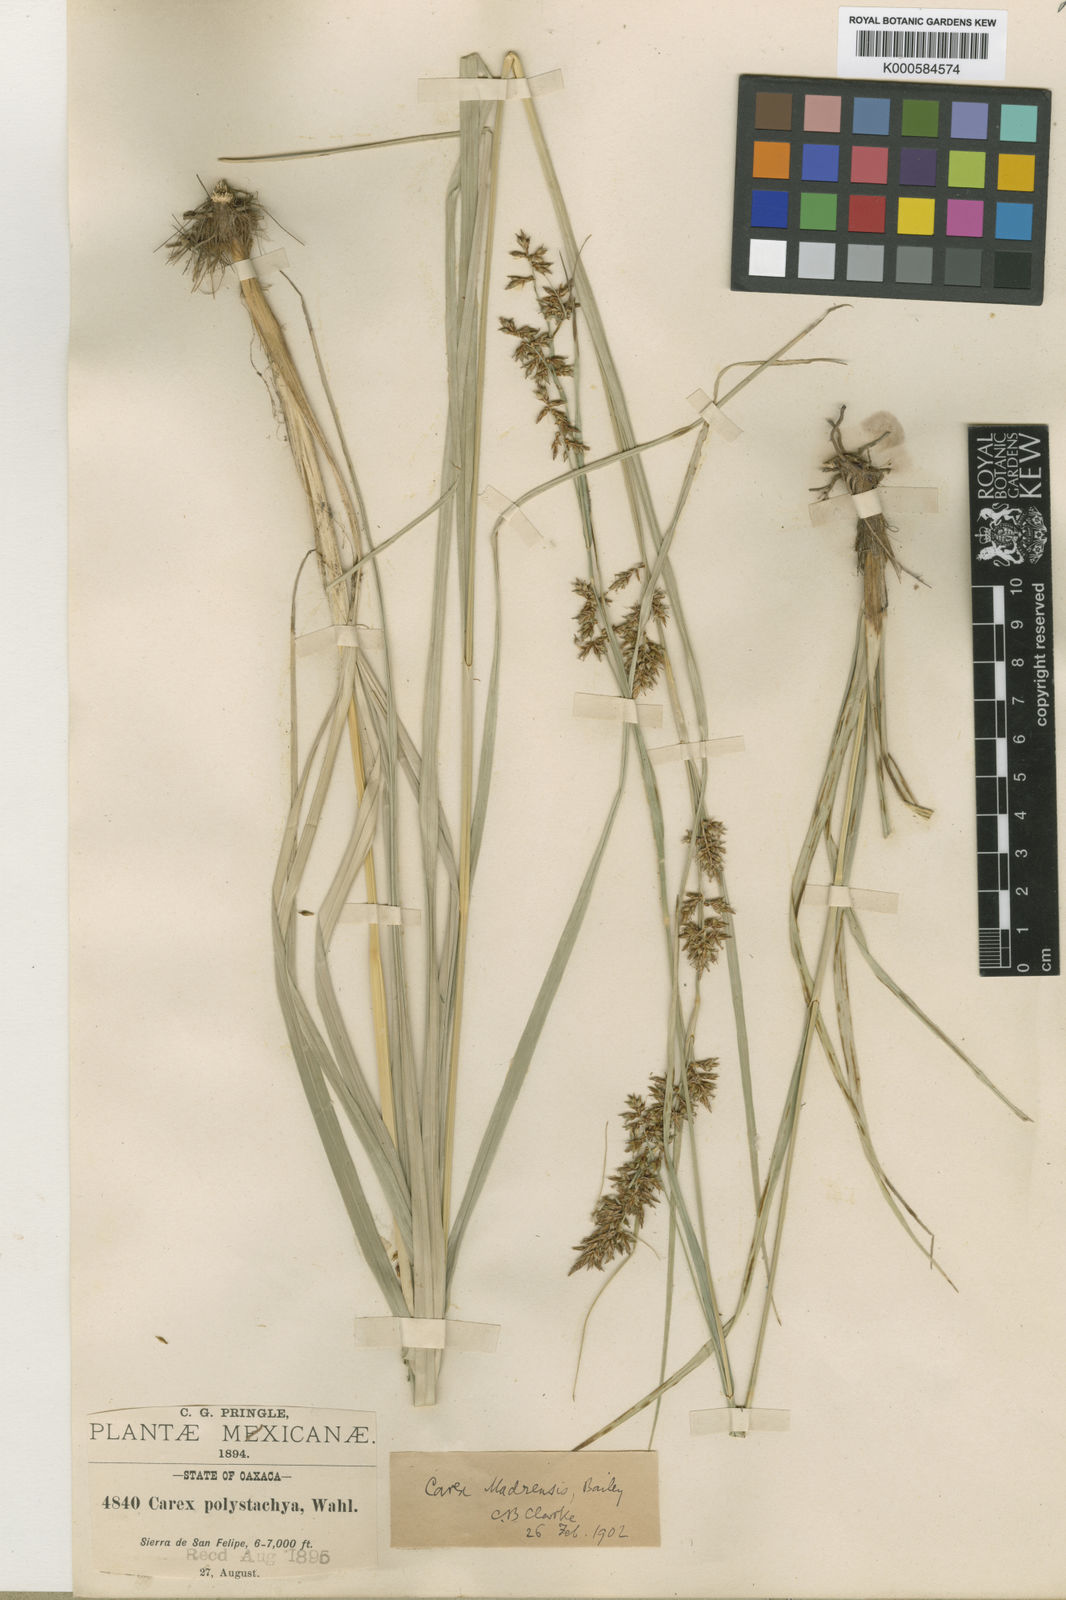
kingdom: Plantae
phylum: Tracheophyta
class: Liliopsida
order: Poales
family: Cyperaceae
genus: Carex
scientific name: Carex madrensis
